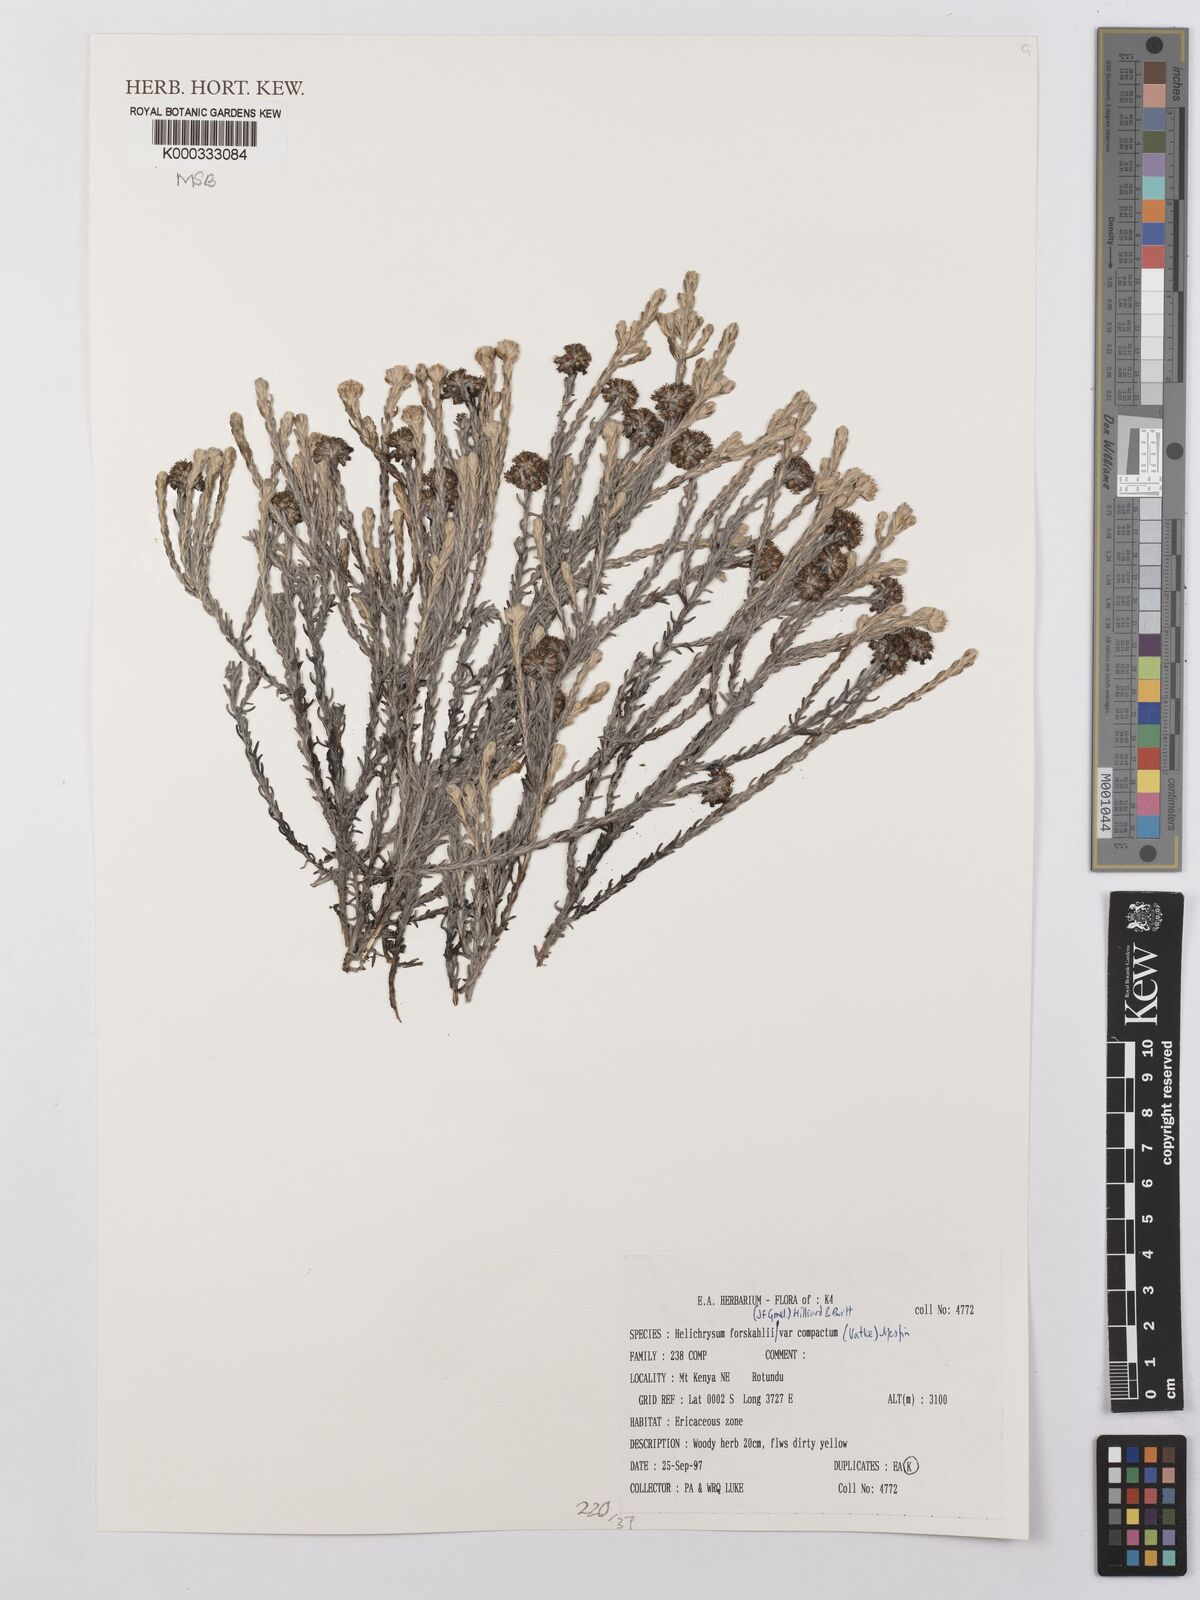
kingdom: Plantae
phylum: Tracheophyta
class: Magnoliopsida
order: Asterales
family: Asteraceae
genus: Helichrysum
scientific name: Helichrysum forskahlii
